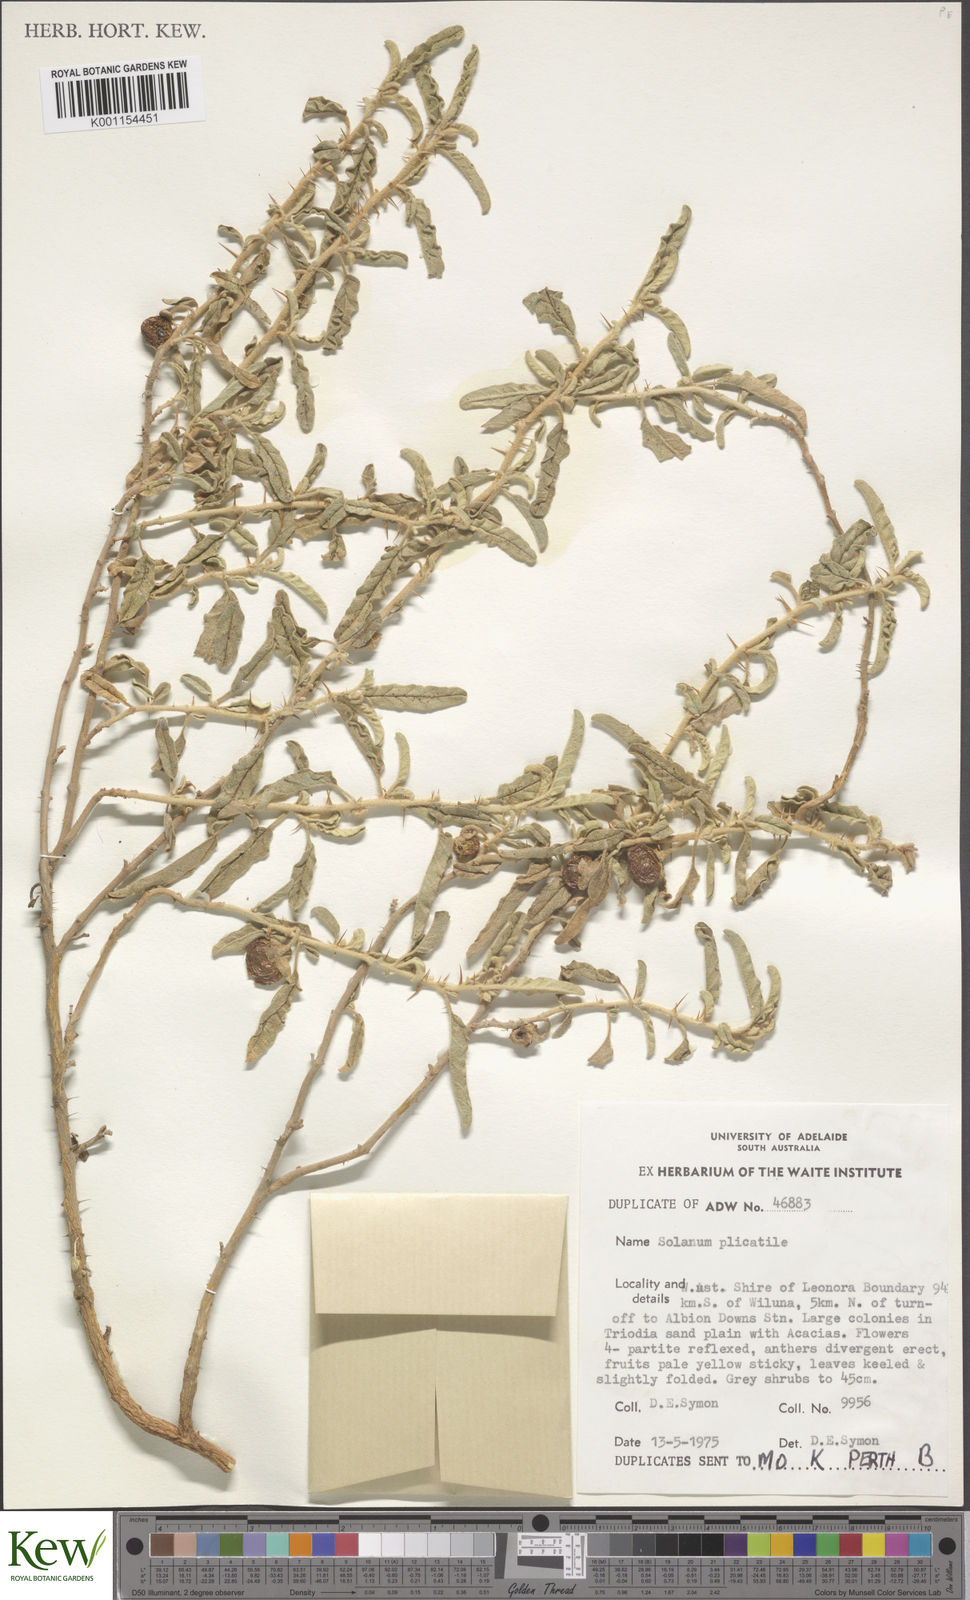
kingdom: Plantae
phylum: Tracheophyta
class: Magnoliopsida
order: Solanales
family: Solanaceae
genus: Solanum
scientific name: Solanum coactiliferum
